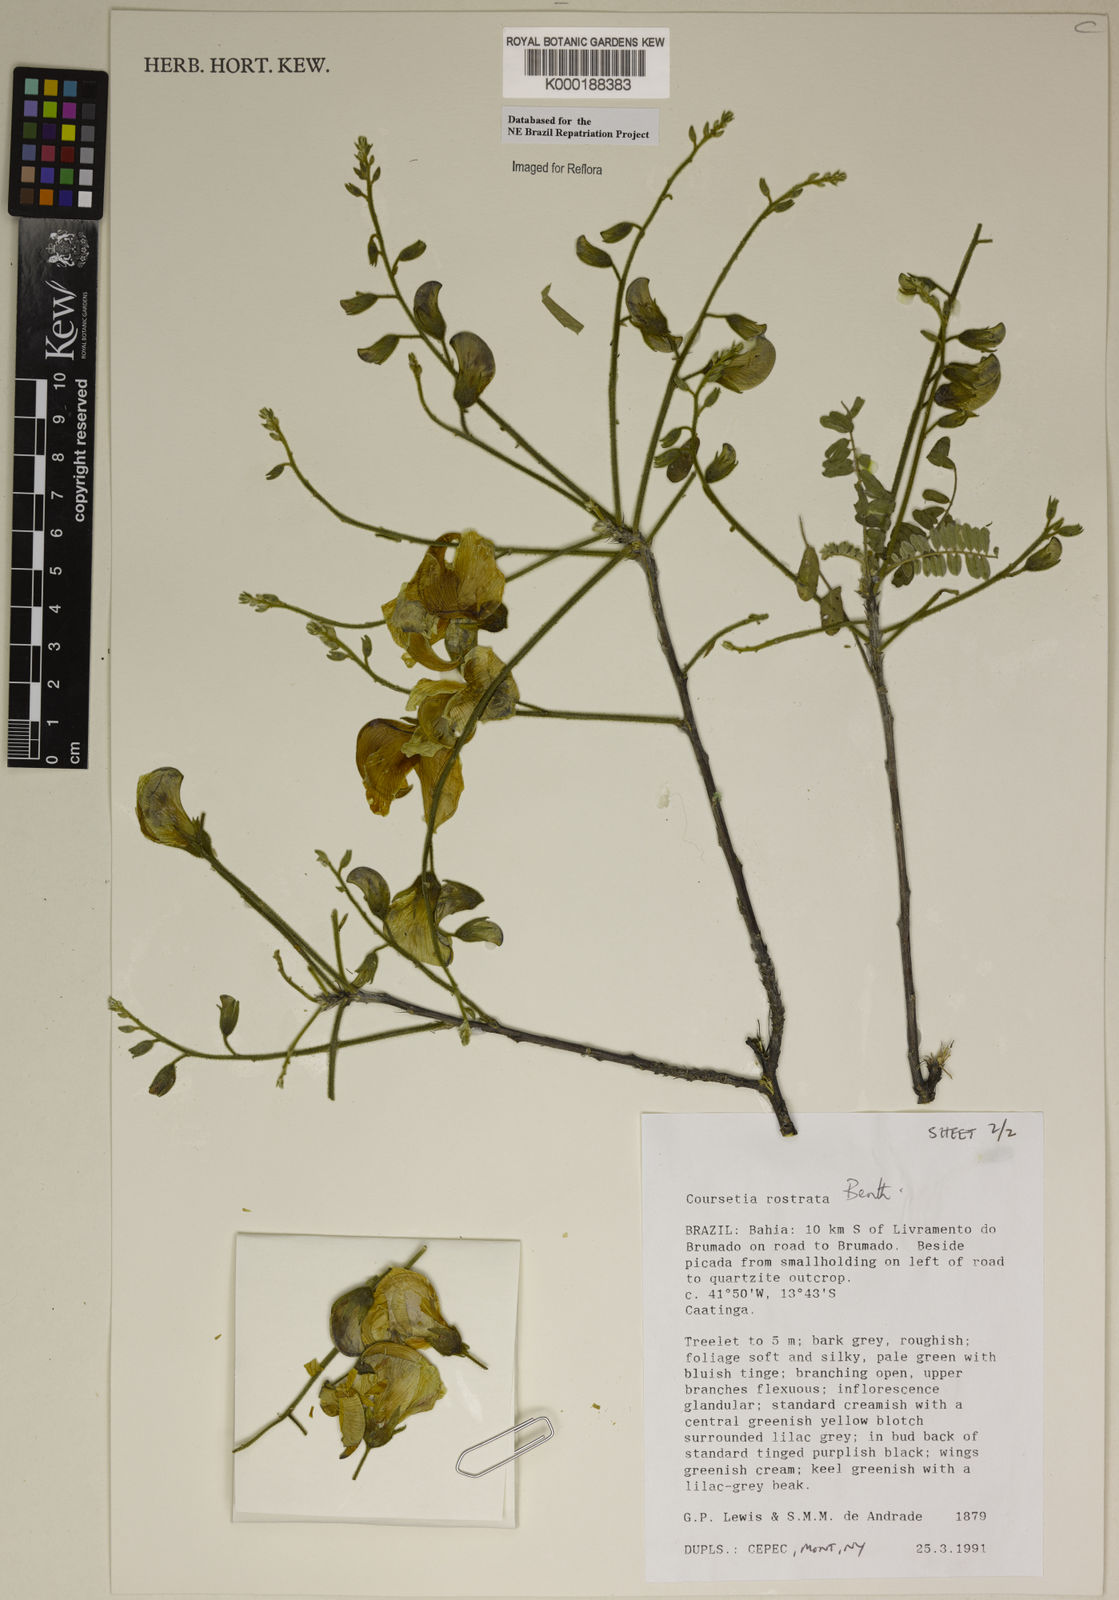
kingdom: Plantae
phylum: Tracheophyta
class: Magnoliopsida
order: Fabales
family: Fabaceae
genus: Coursetia
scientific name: Coursetia rostrata
